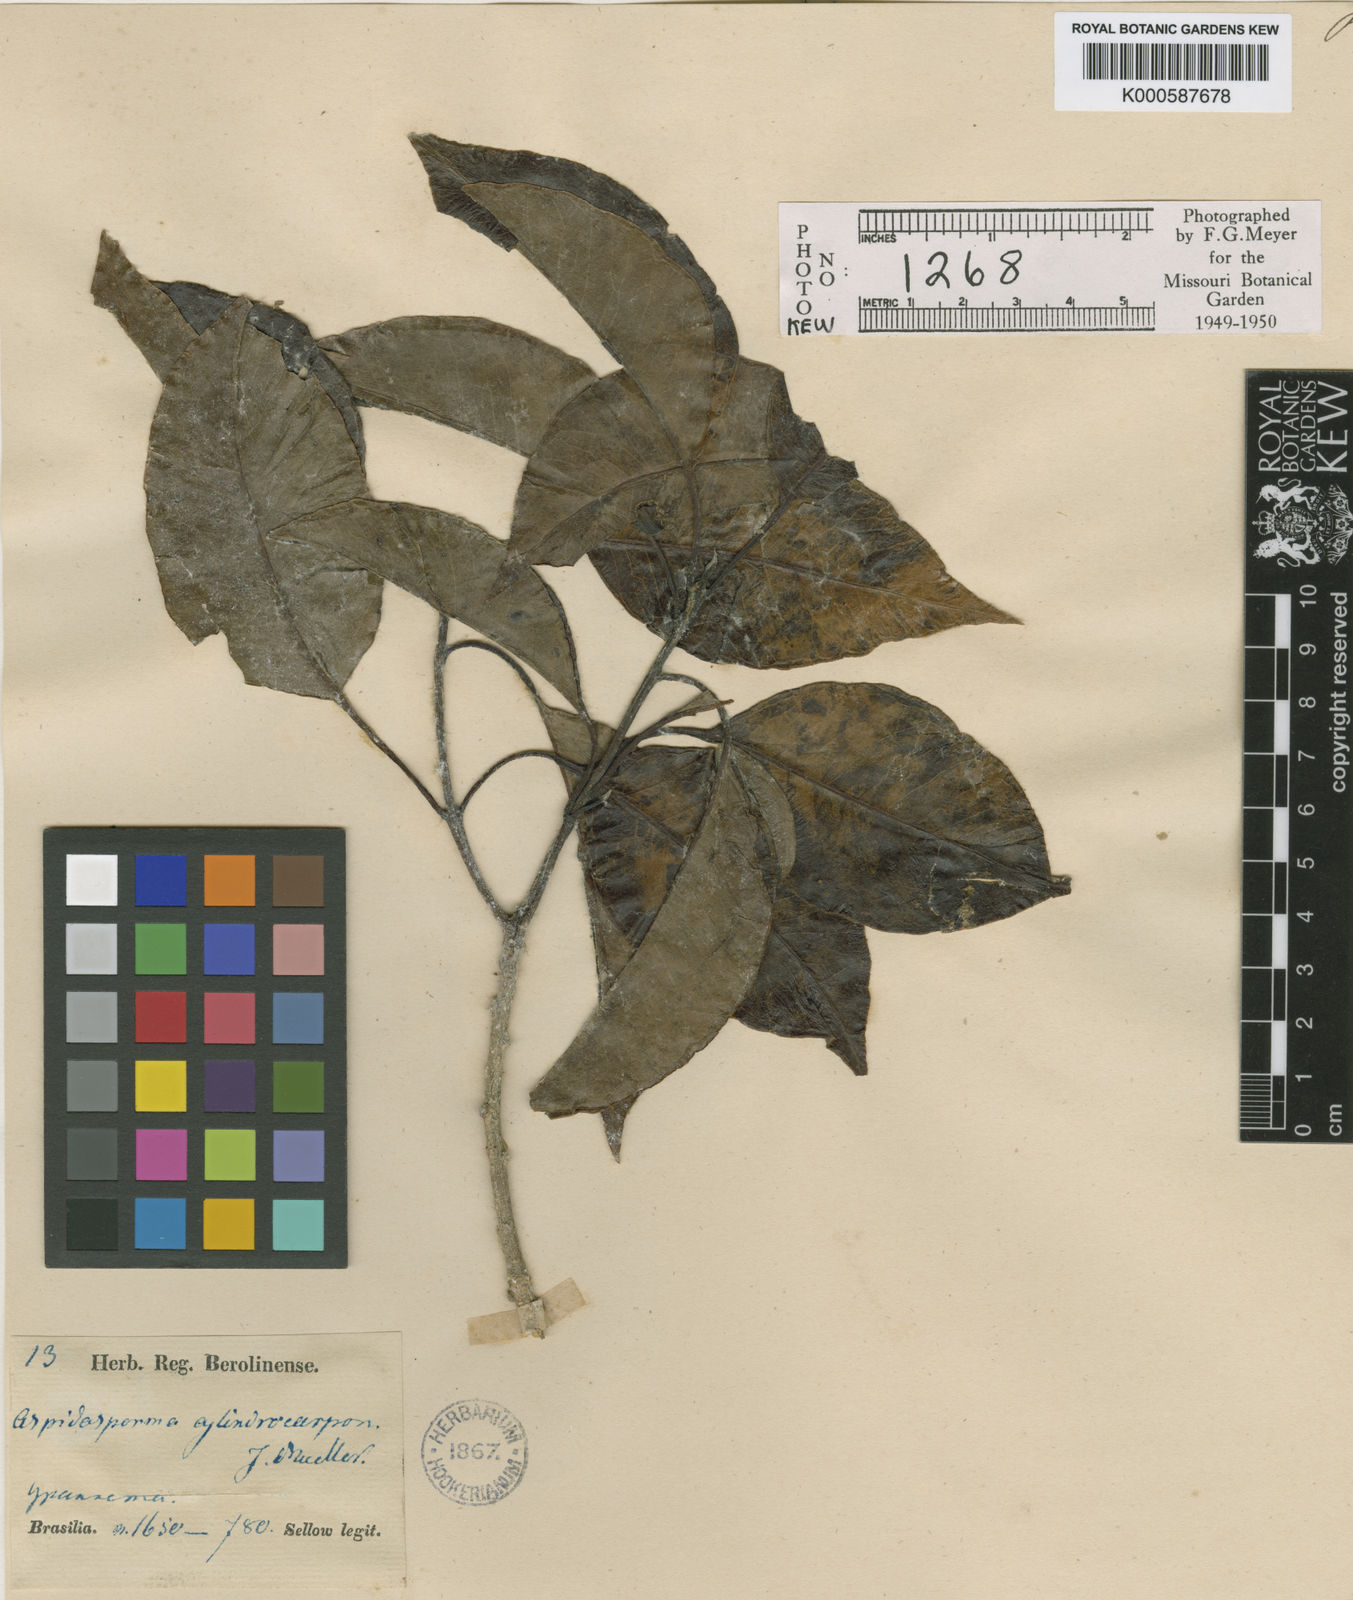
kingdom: Plantae
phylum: Tracheophyta
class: Magnoliopsida
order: Gentianales
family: Apocynaceae
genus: Aspidosperma
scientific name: Aspidosperma
